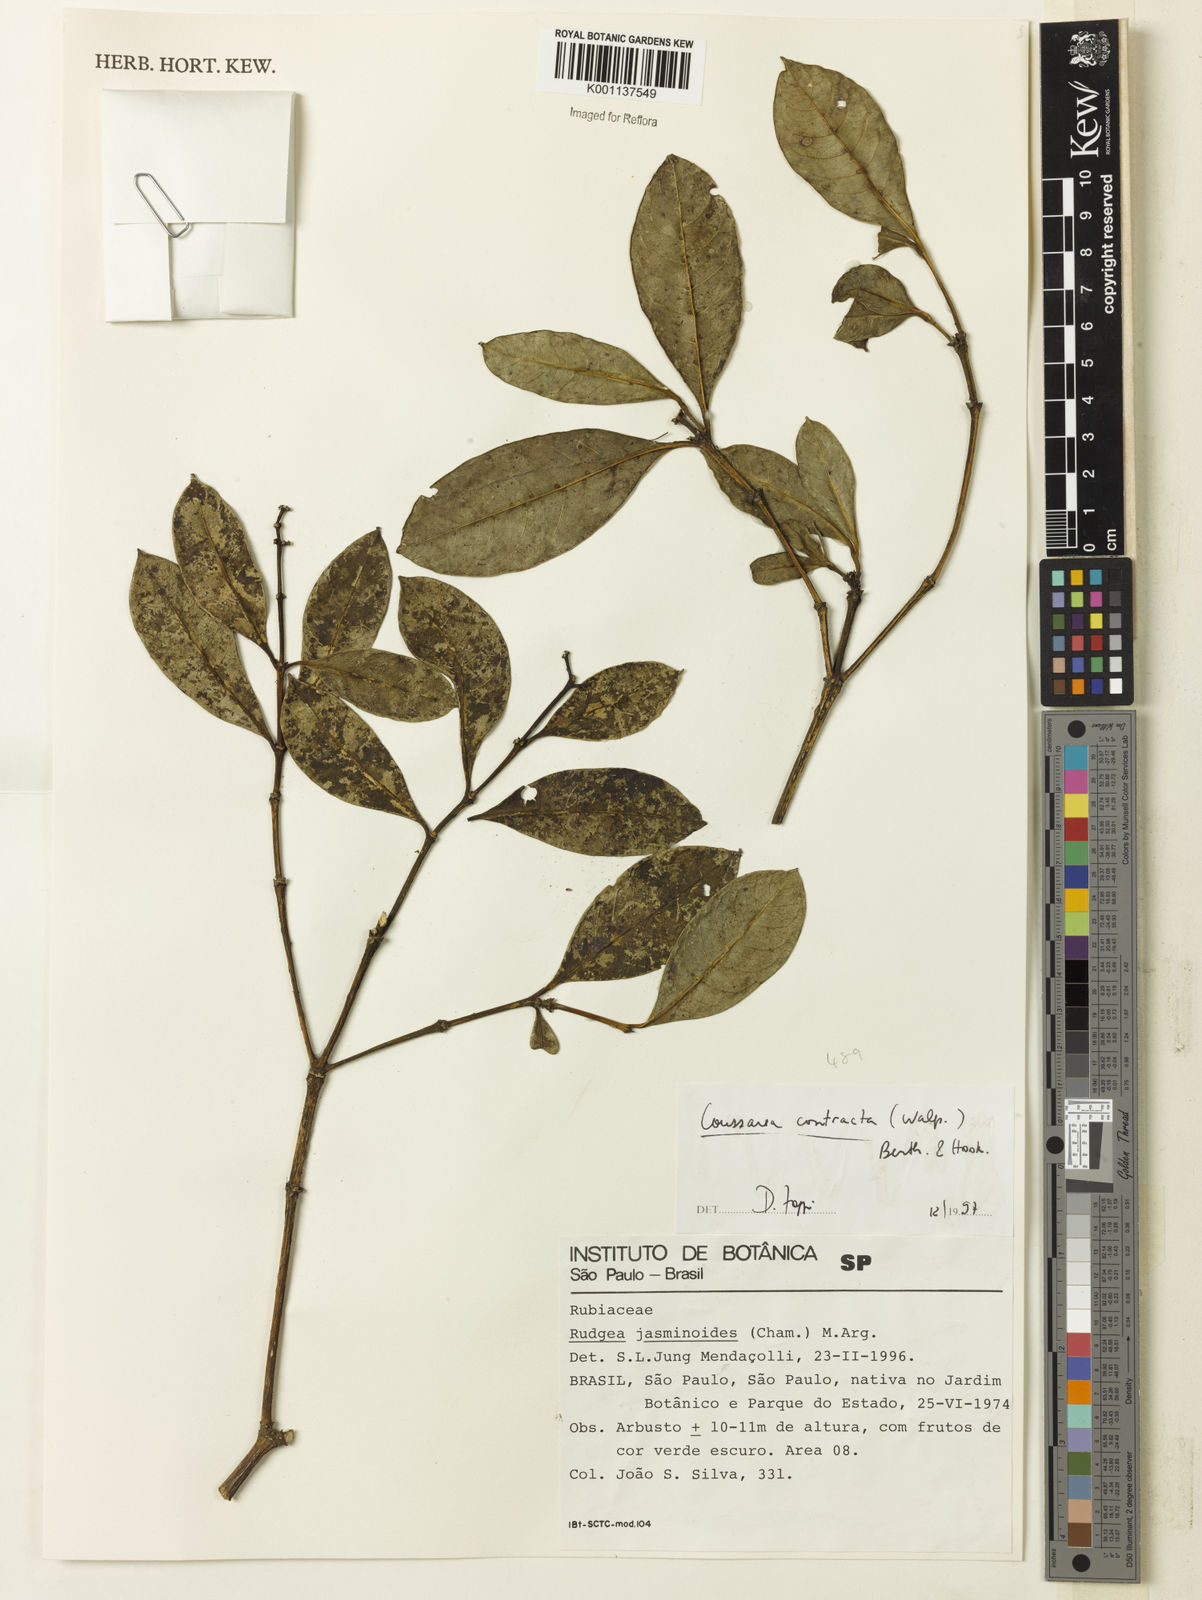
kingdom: Plantae
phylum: Tracheophyta
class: Magnoliopsida
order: Gentianales
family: Rubiaceae
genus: Coussarea
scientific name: Coussarea
